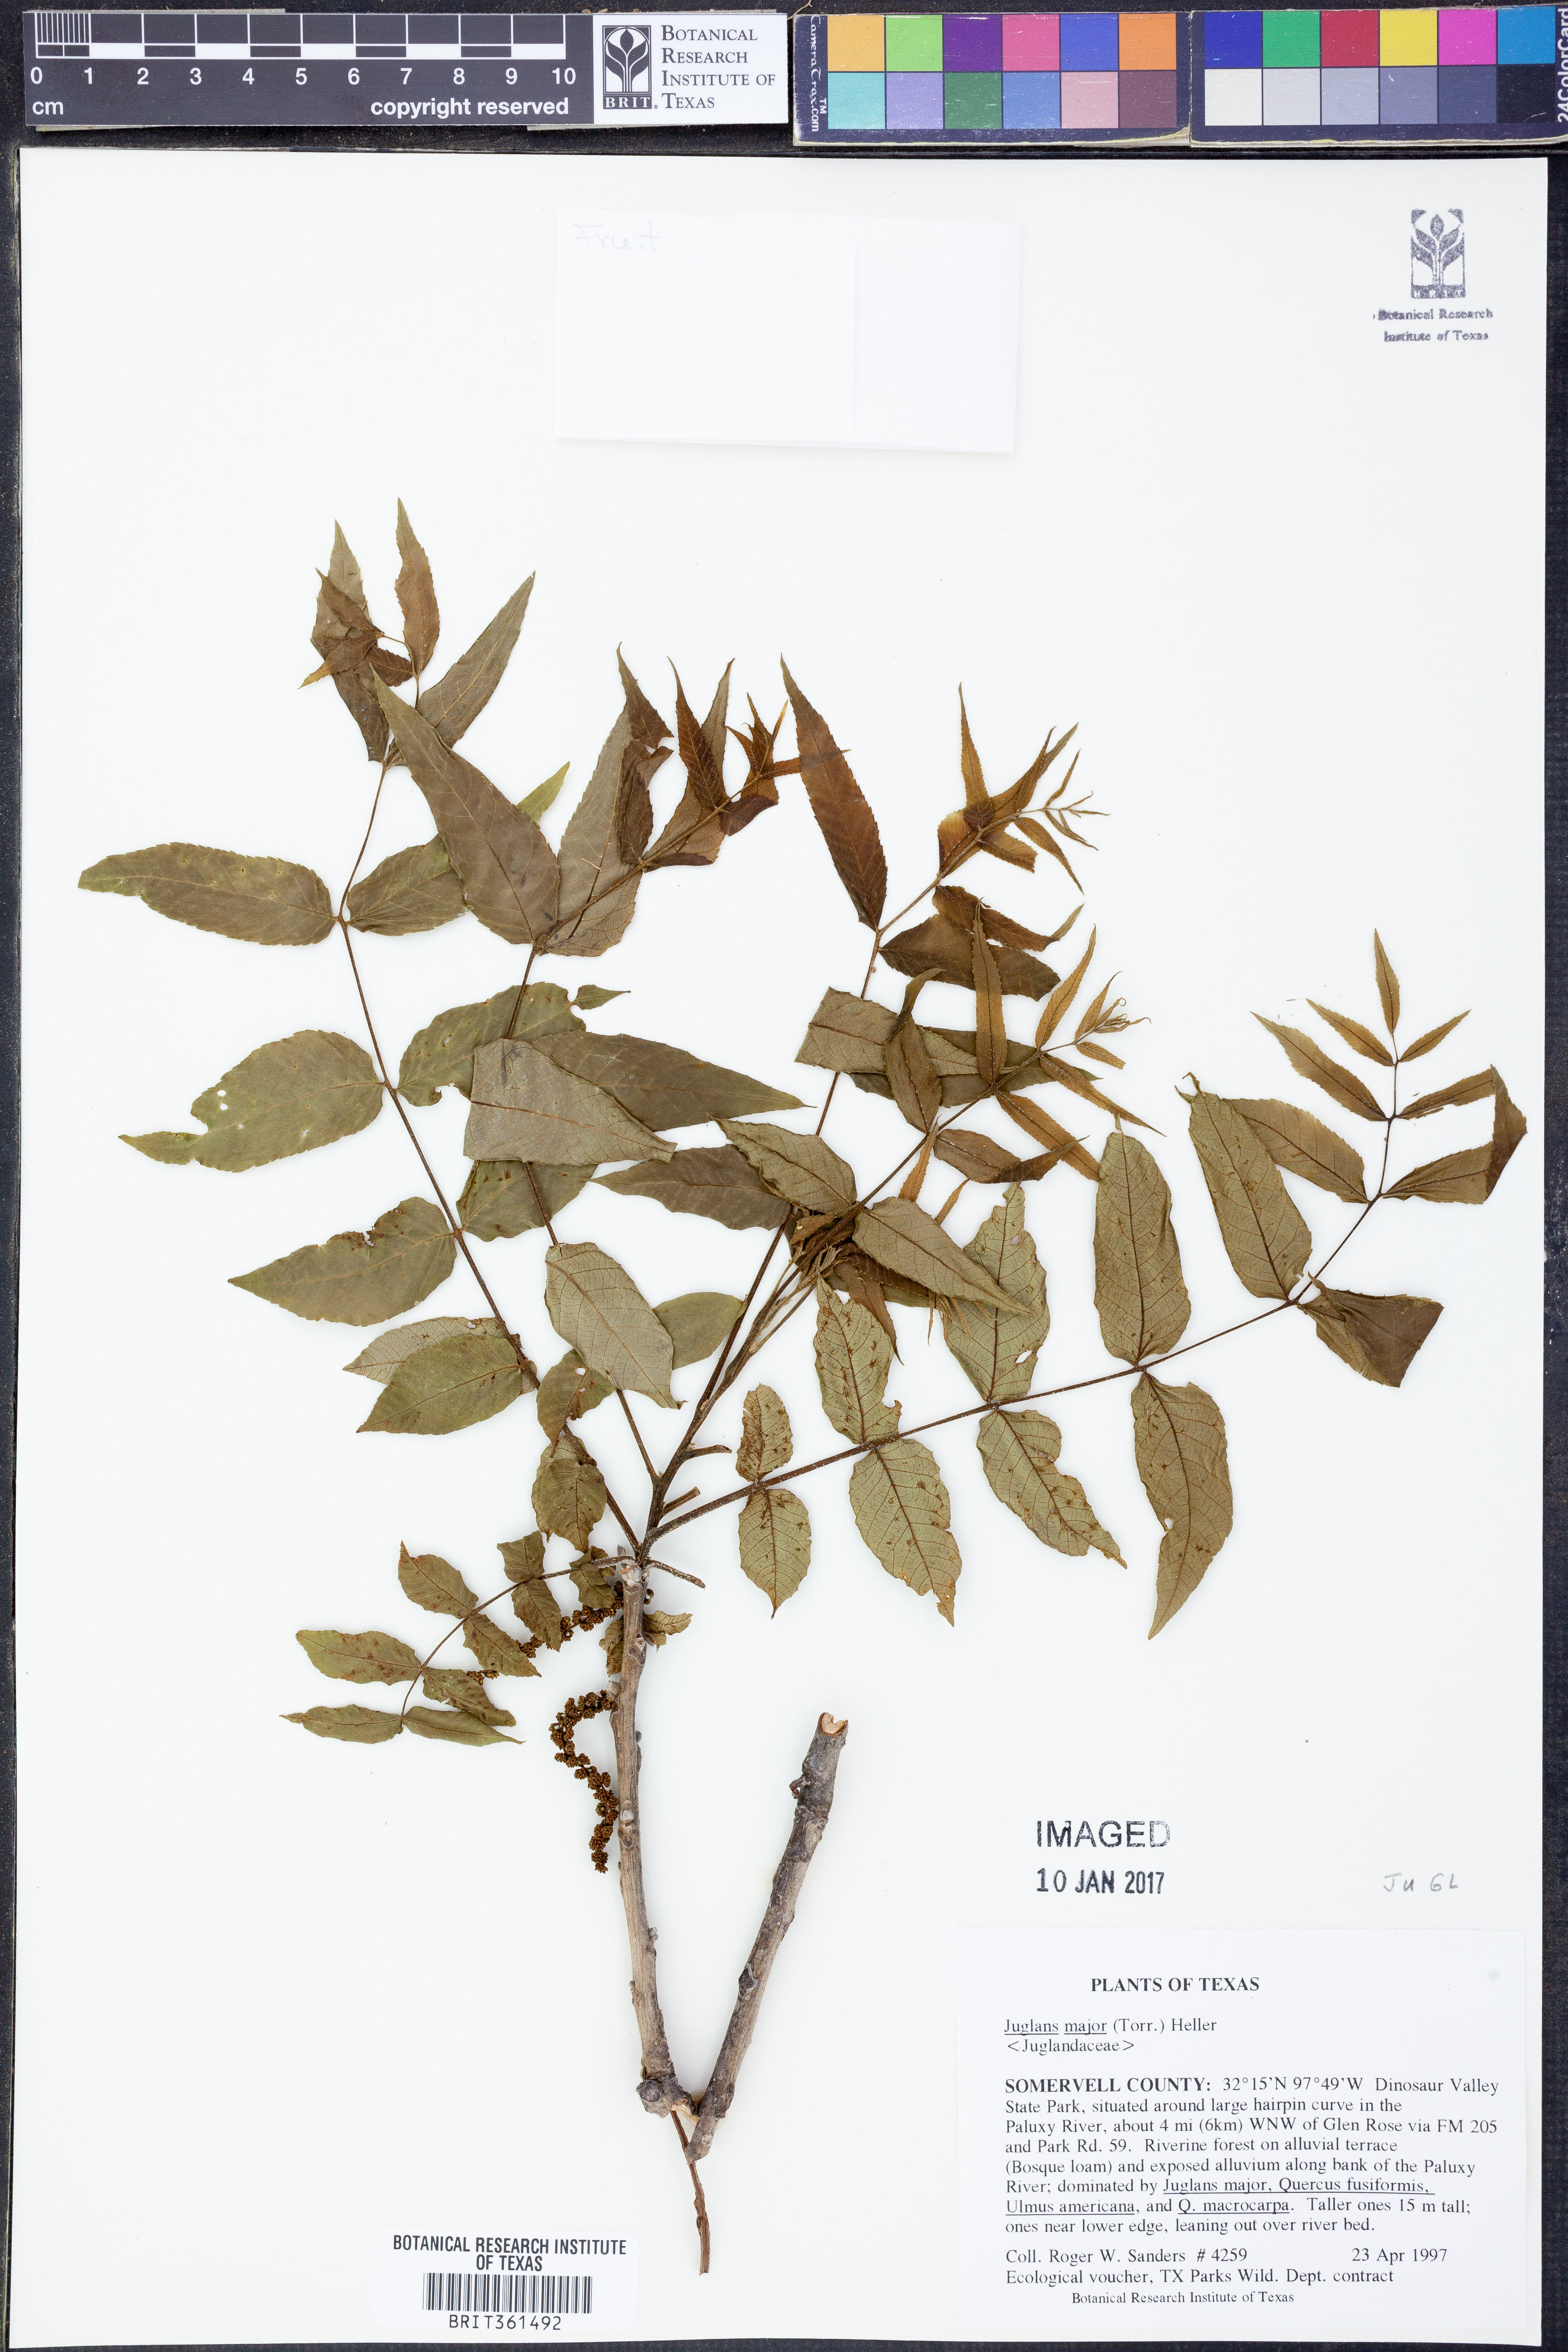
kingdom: Plantae
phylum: Tracheophyta
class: Magnoliopsida
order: Fagales
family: Juglandaceae
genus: Juglans
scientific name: Juglans major
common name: Arizona walnut
